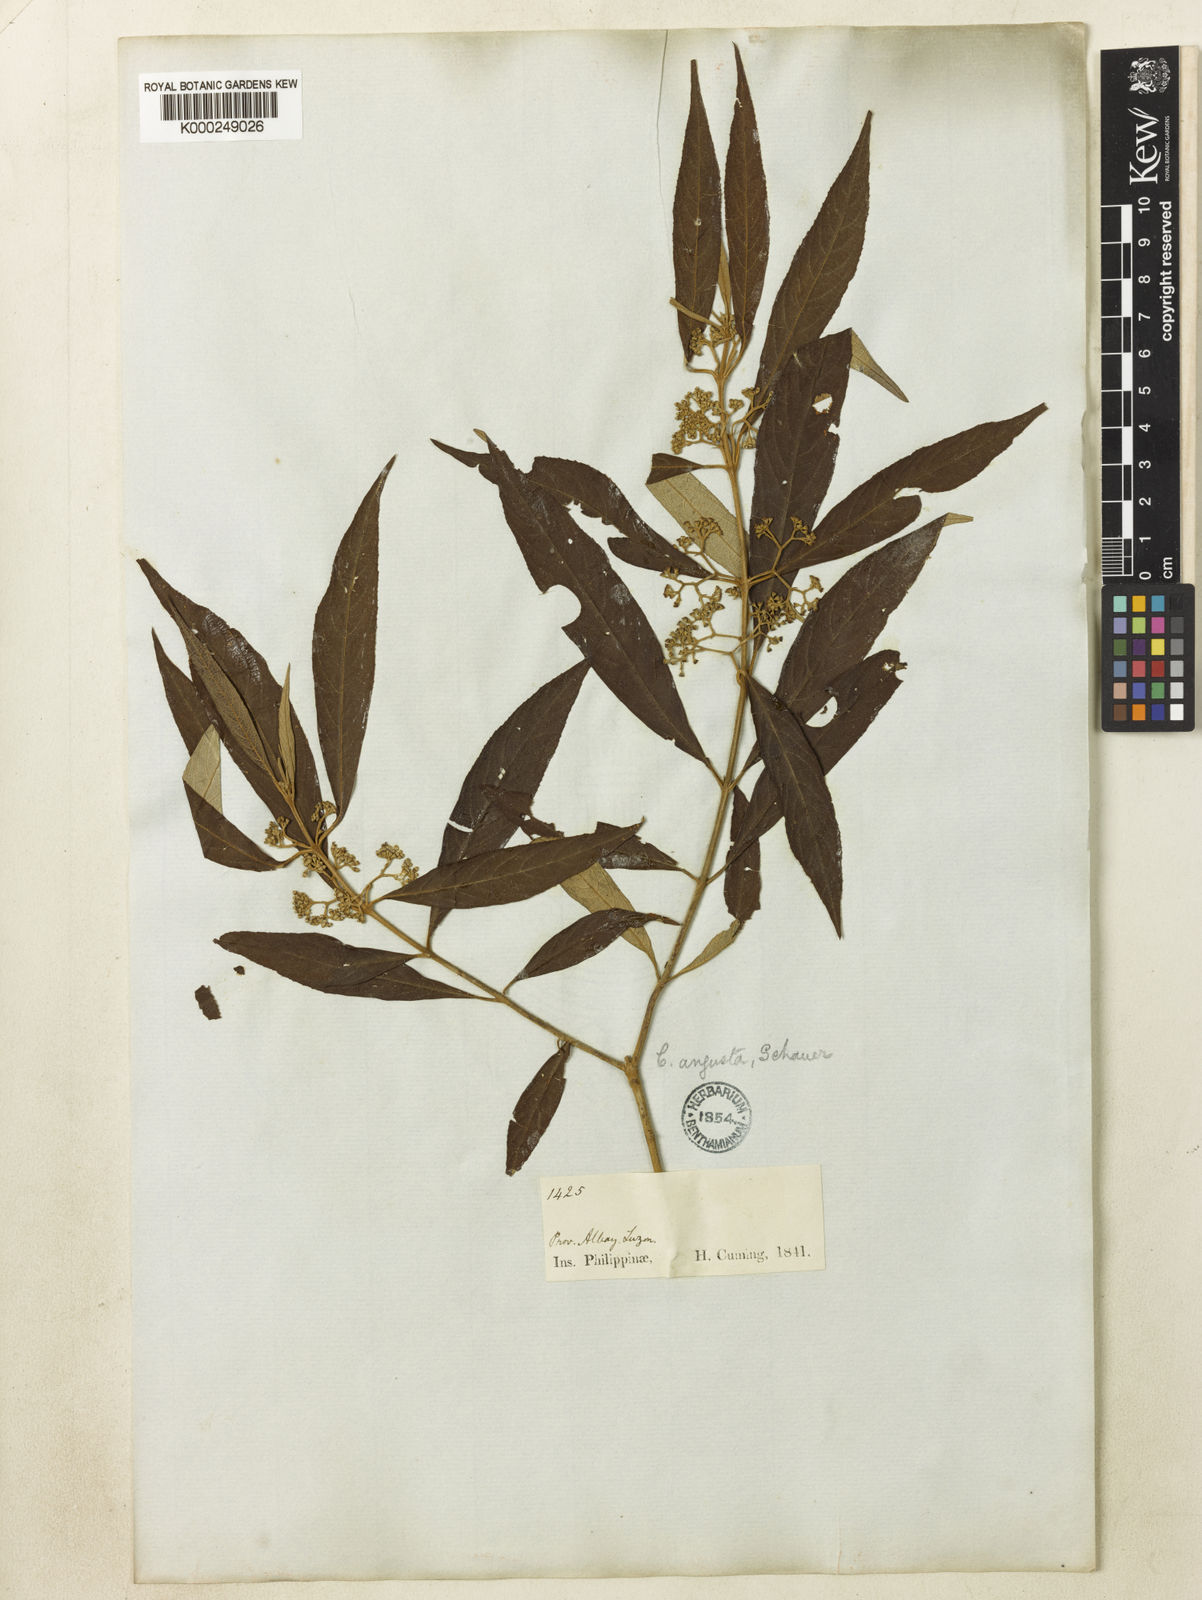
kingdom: Plantae
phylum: Tracheophyta
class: Magnoliopsida
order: Lamiales
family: Lamiaceae
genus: Callicarpa
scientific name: Callicarpa angusta
